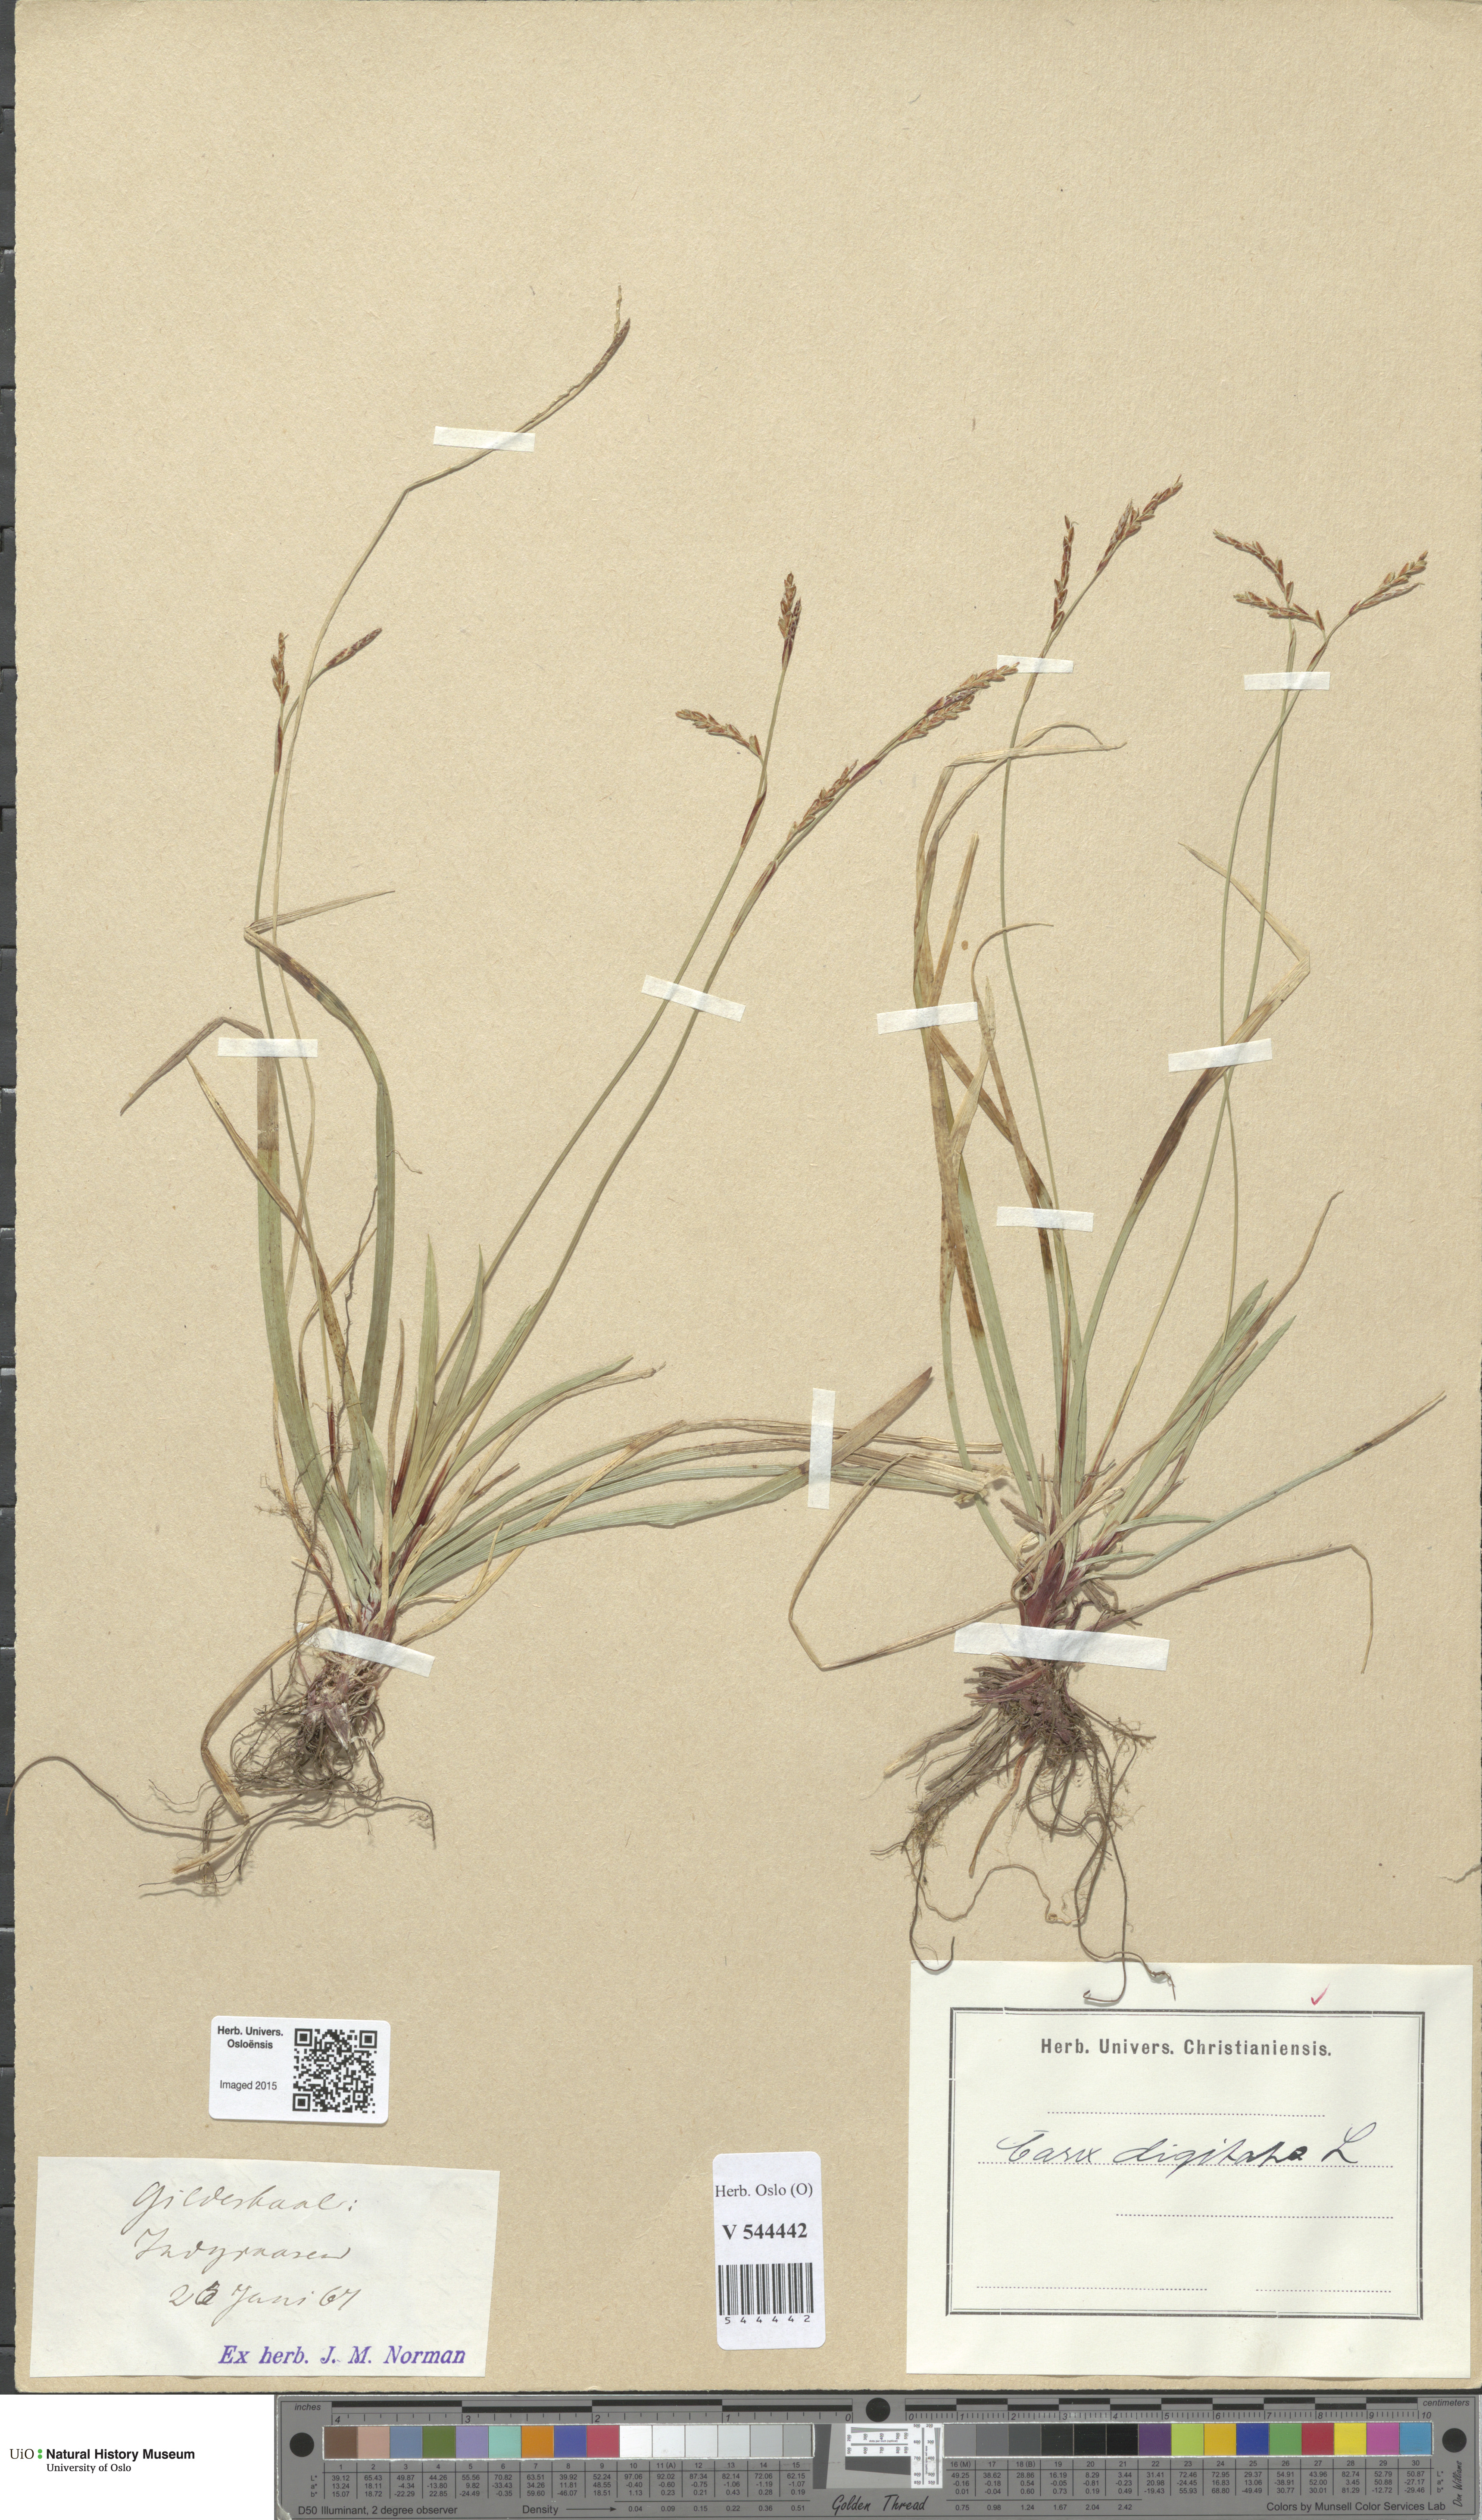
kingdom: Plantae
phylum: Tracheophyta
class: Liliopsida
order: Poales
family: Cyperaceae
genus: Carex
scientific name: Carex digitata
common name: Fingered sedge
